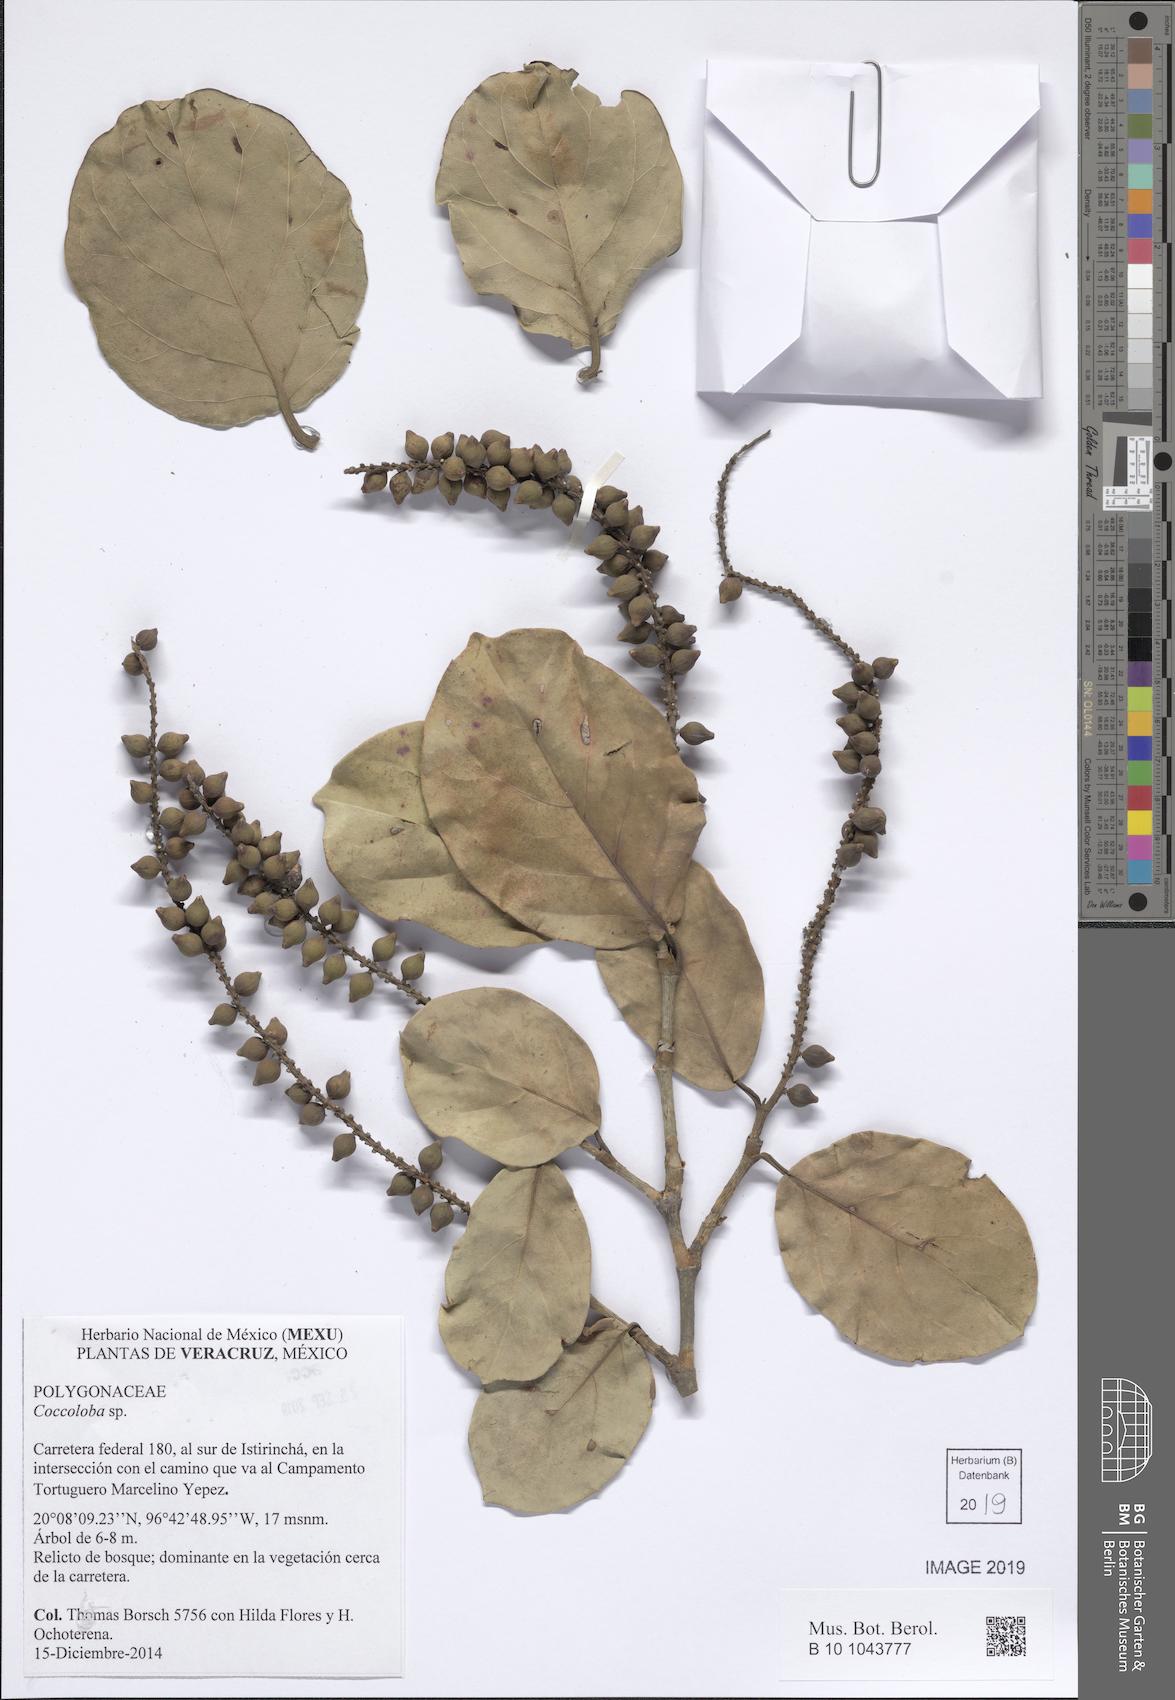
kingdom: Plantae
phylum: Tracheophyta
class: Magnoliopsida
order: Caryophyllales
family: Polygonaceae
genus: Coccoloba
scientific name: Coccoloba
